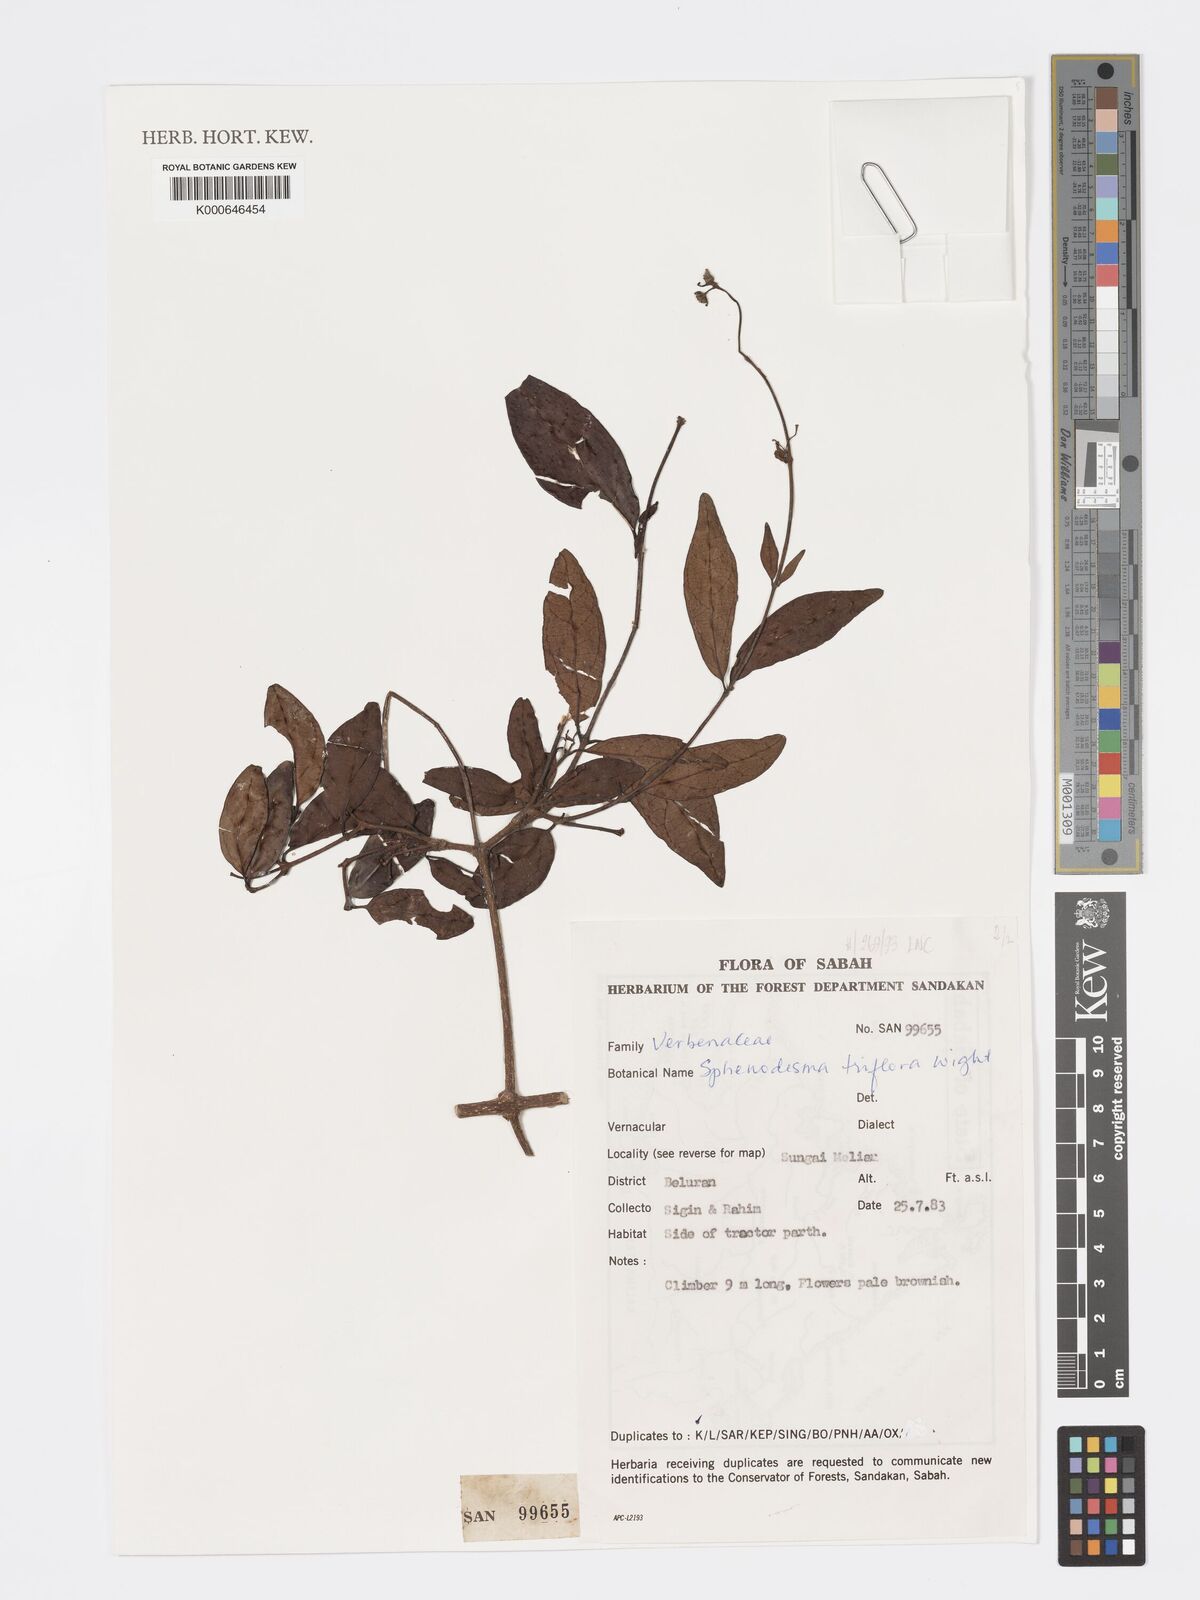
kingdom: Plantae
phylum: Tracheophyta
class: Magnoliopsida
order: Lamiales
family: Lamiaceae
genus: Sphenodesme
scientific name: Sphenodesme
